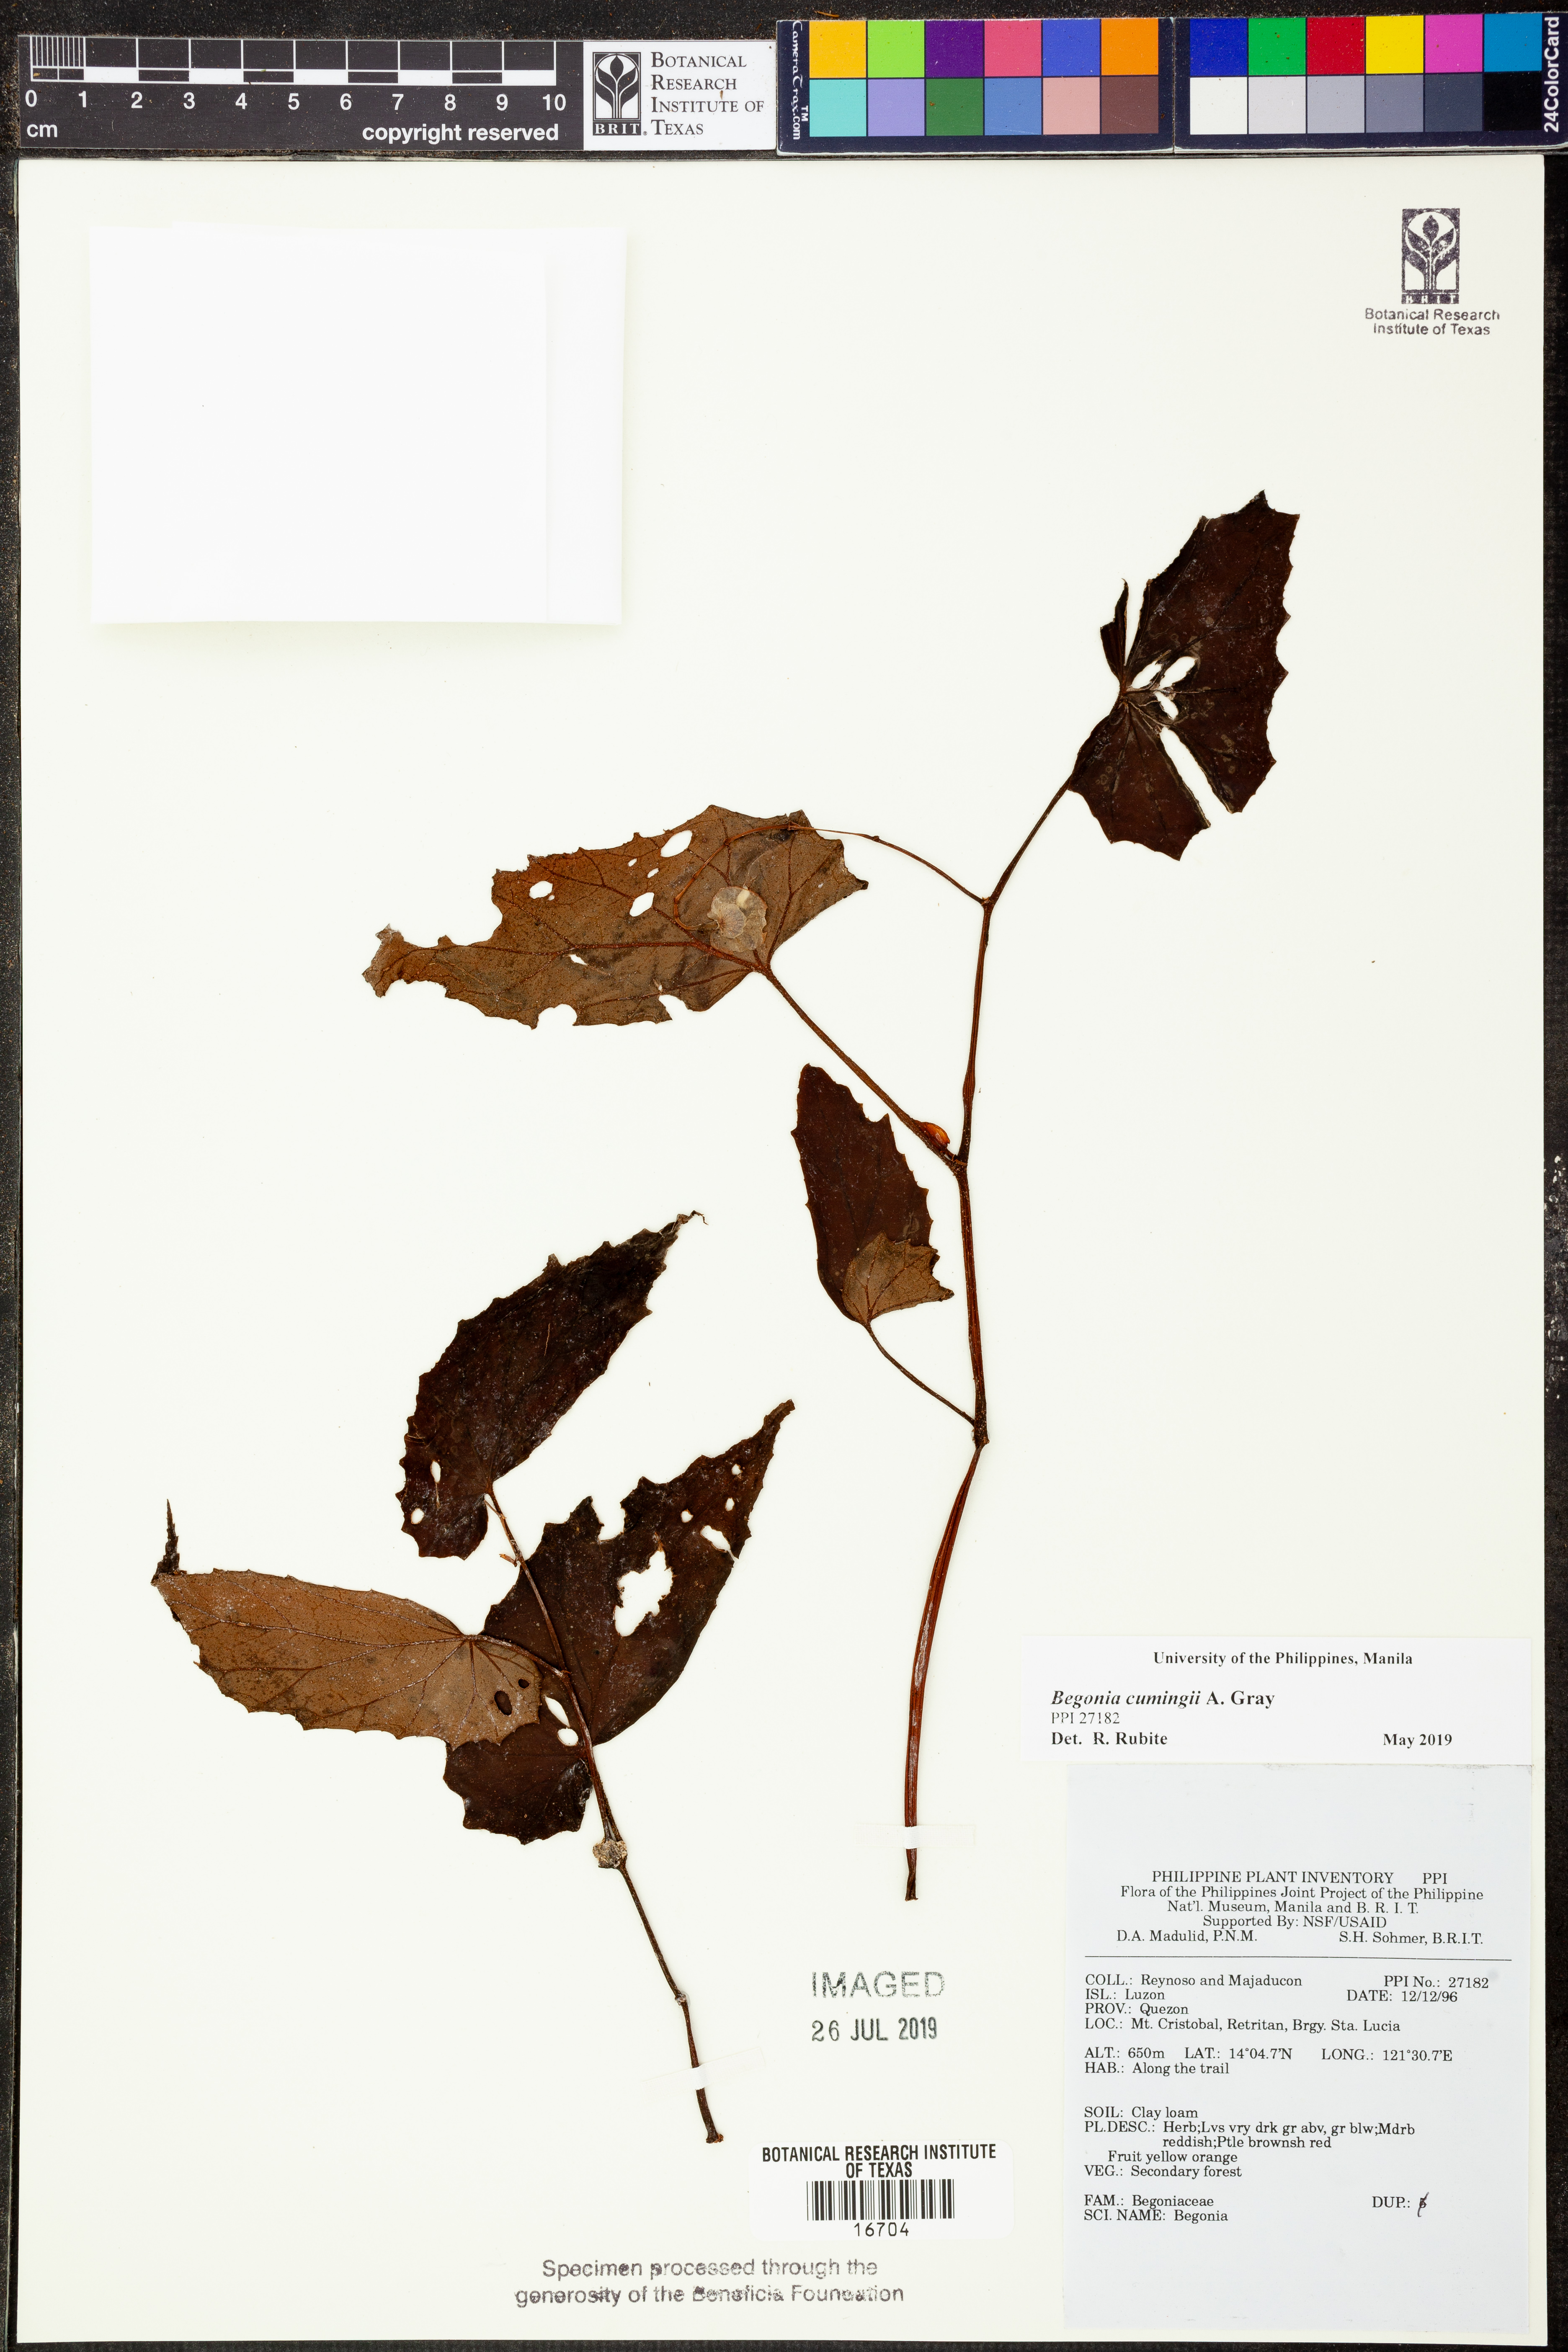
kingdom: Plantae
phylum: Tracheophyta
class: Magnoliopsida
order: Cucurbitales
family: Begoniaceae
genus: Begonia
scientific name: Begonia cumingii
